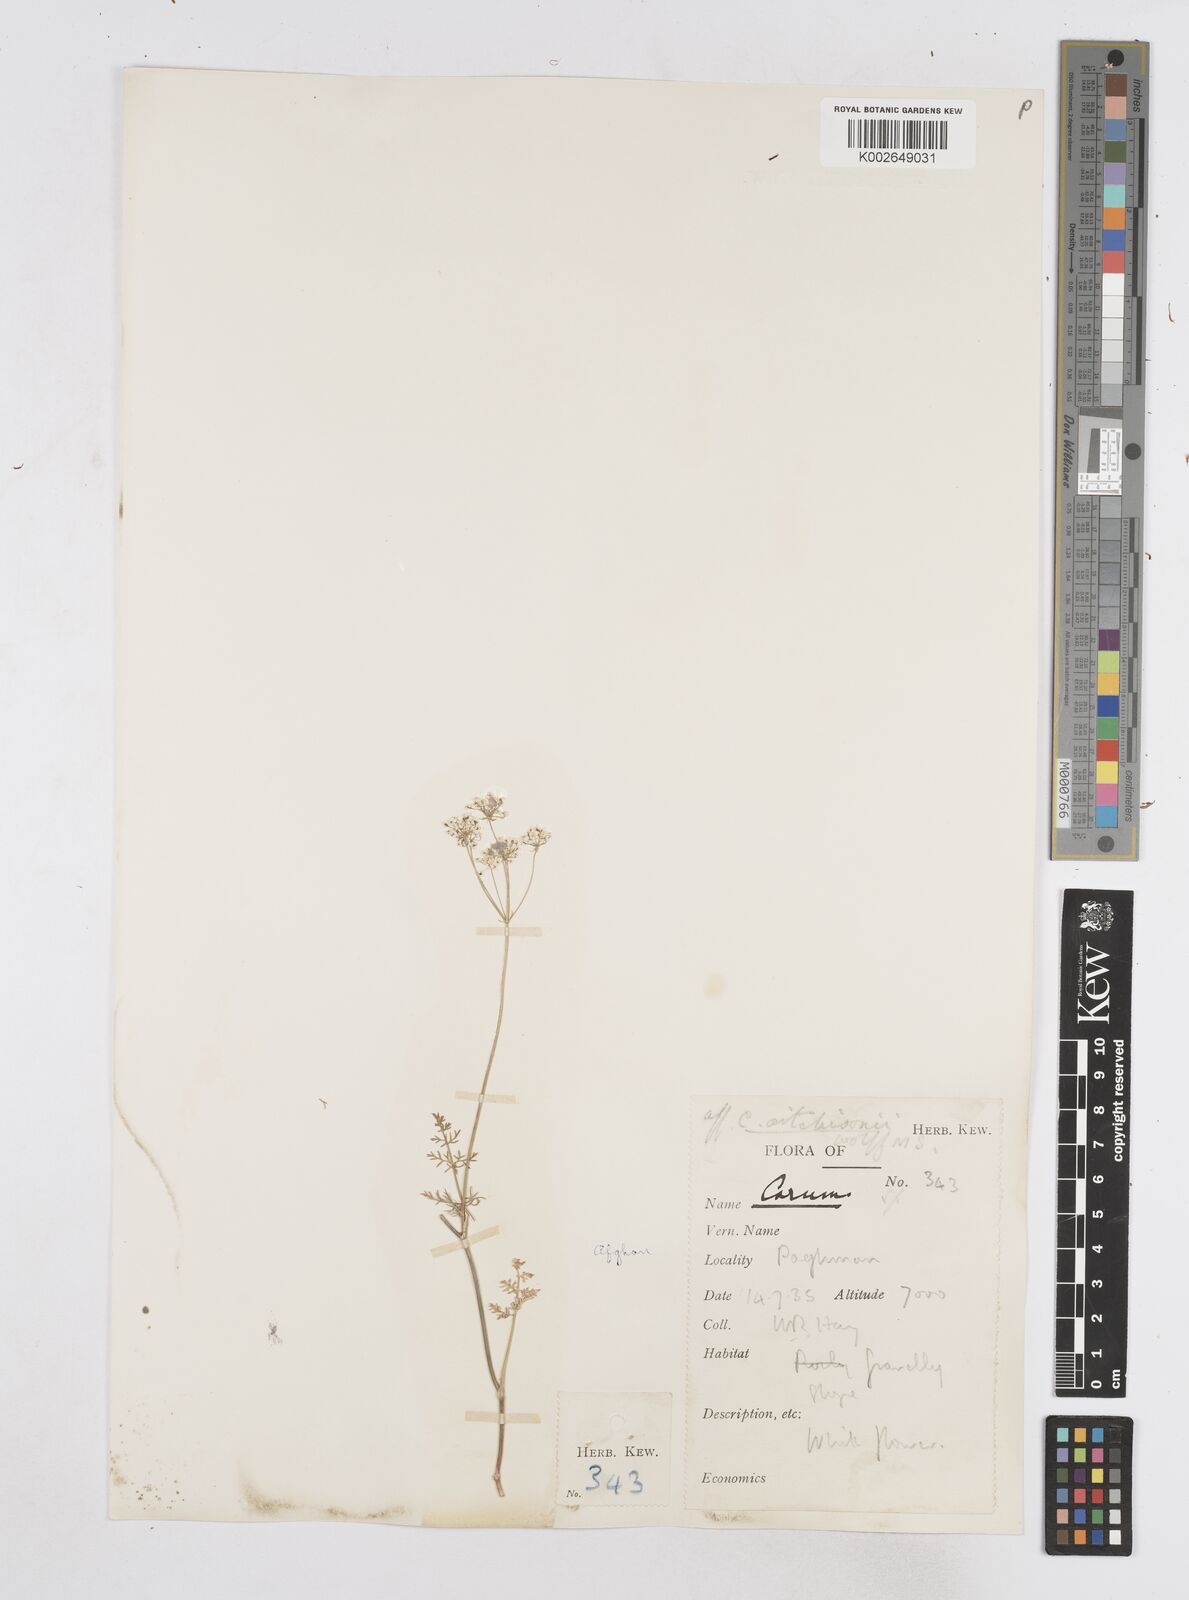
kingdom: Plantae
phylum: Tracheophyta
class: Magnoliopsida
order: Apiales
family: Apiaceae
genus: Bunium
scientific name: Bunium
